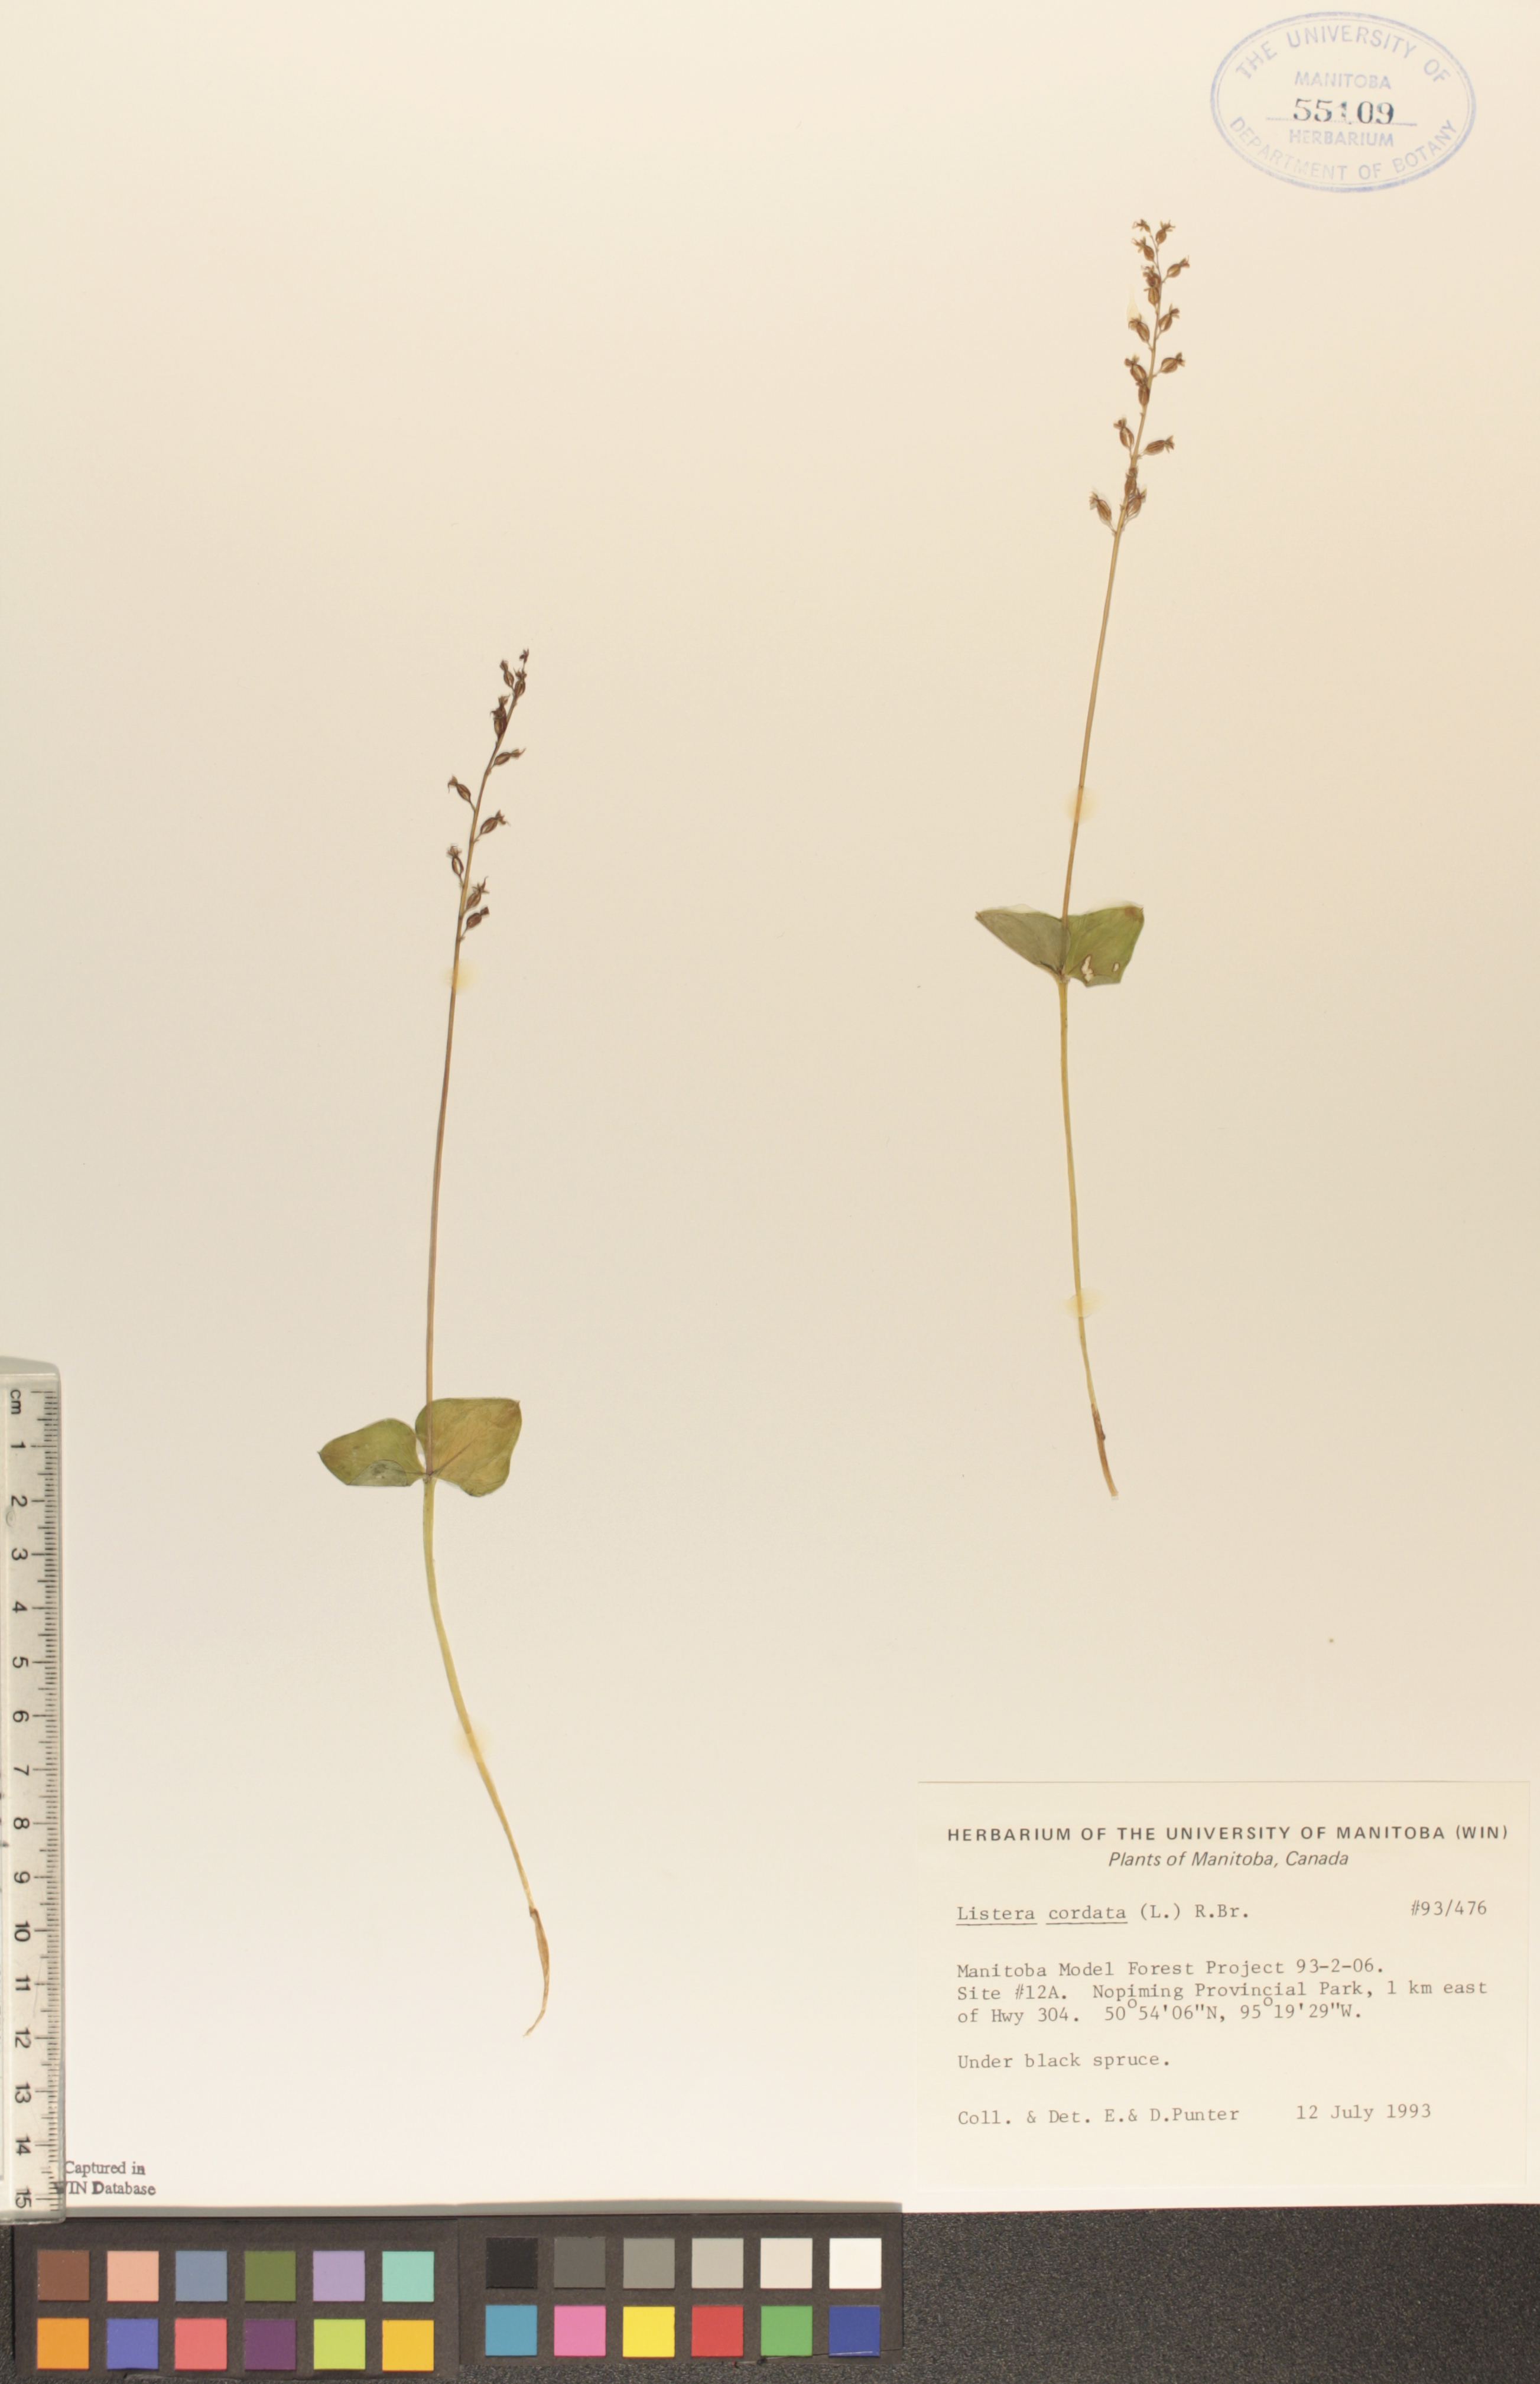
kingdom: Plantae
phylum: Tracheophyta
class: Liliopsida
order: Asparagales
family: Orchidaceae
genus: Neottia
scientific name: Neottia cordata
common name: Lesser twayblade
